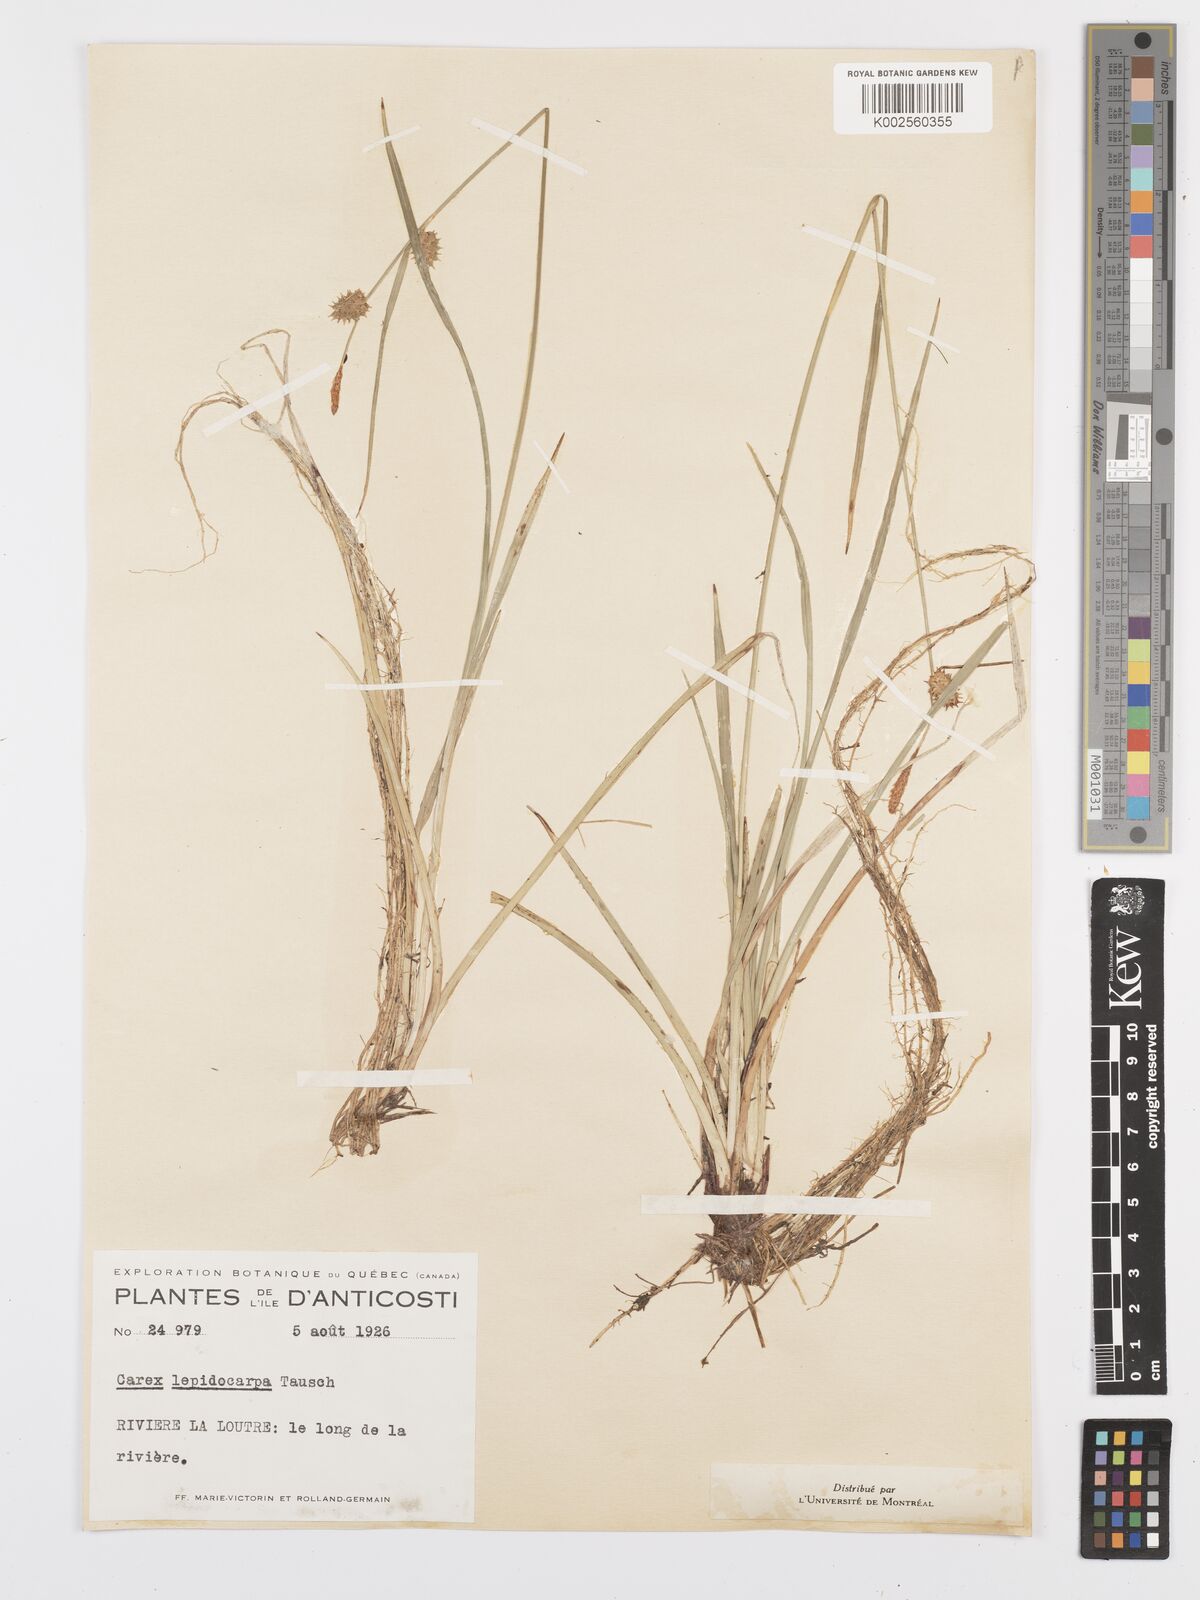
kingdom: Plantae
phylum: Tracheophyta
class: Liliopsida
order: Poales
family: Cyperaceae
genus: Carex
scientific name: Carex lepidocarpa
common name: Long-stalked yellow-sedge
